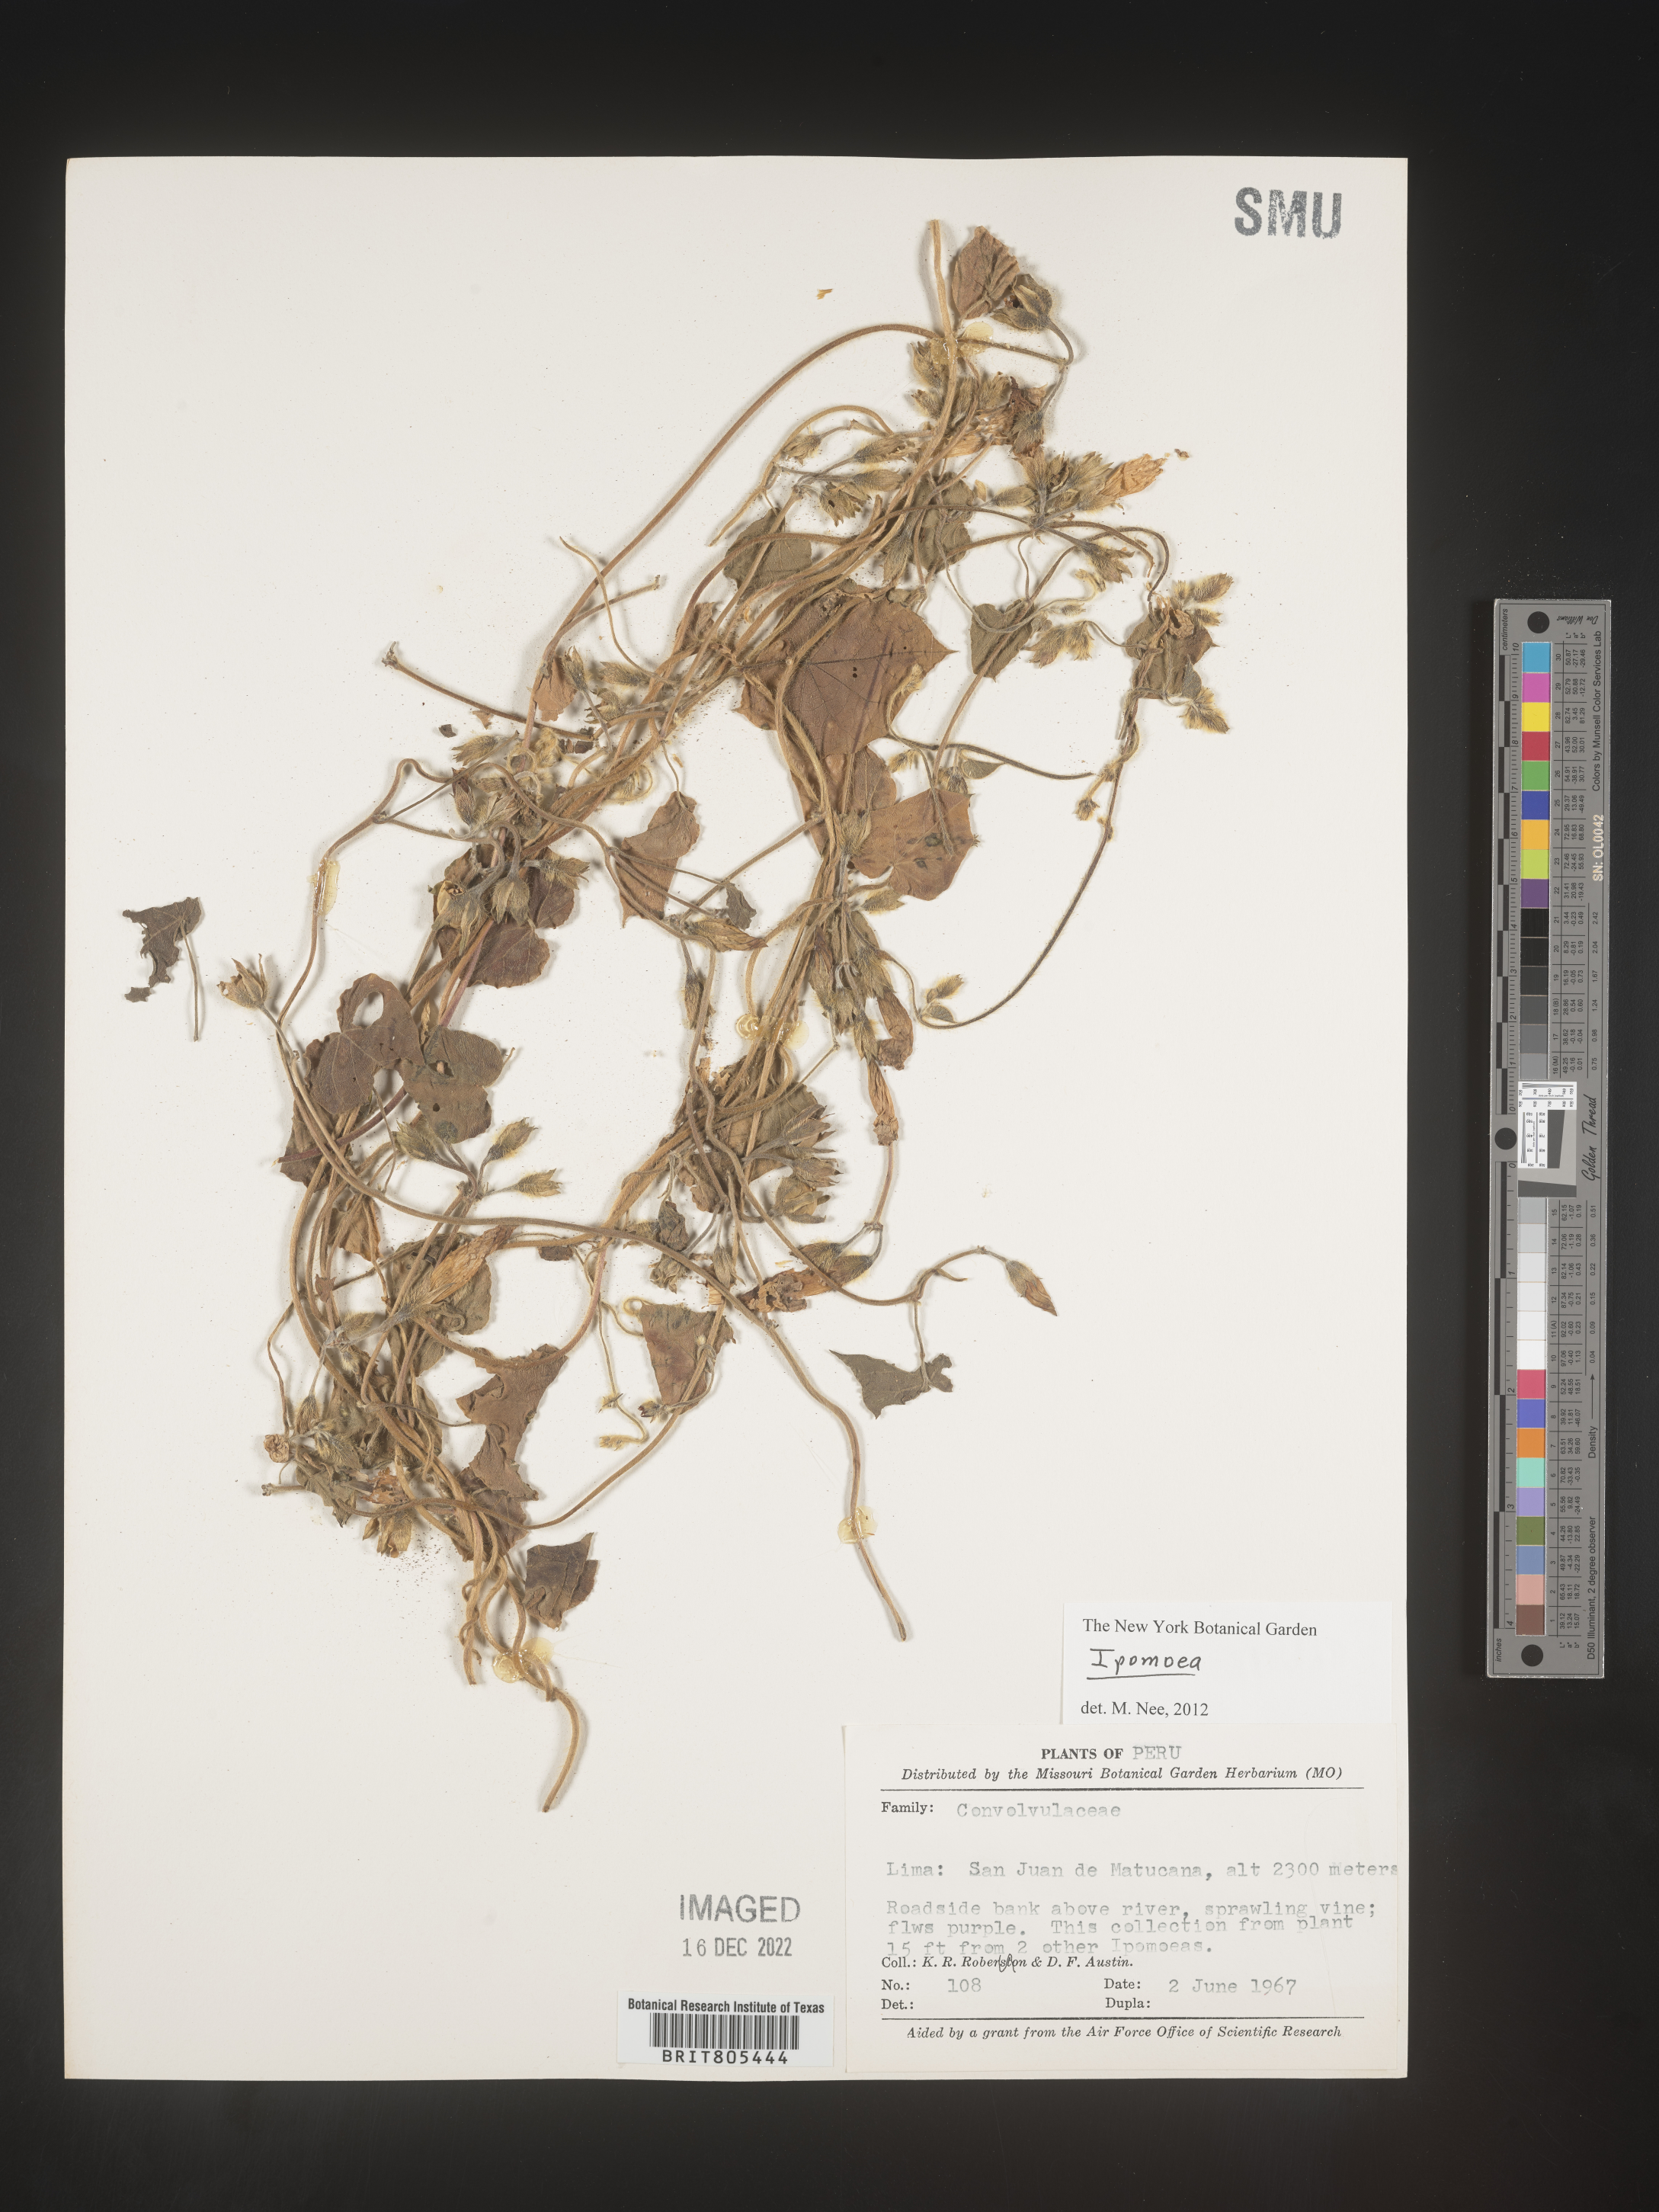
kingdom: Plantae
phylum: Tracheophyta
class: Magnoliopsida
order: Solanales
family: Convolvulaceae
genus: Ipomoea
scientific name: Ipomoea
